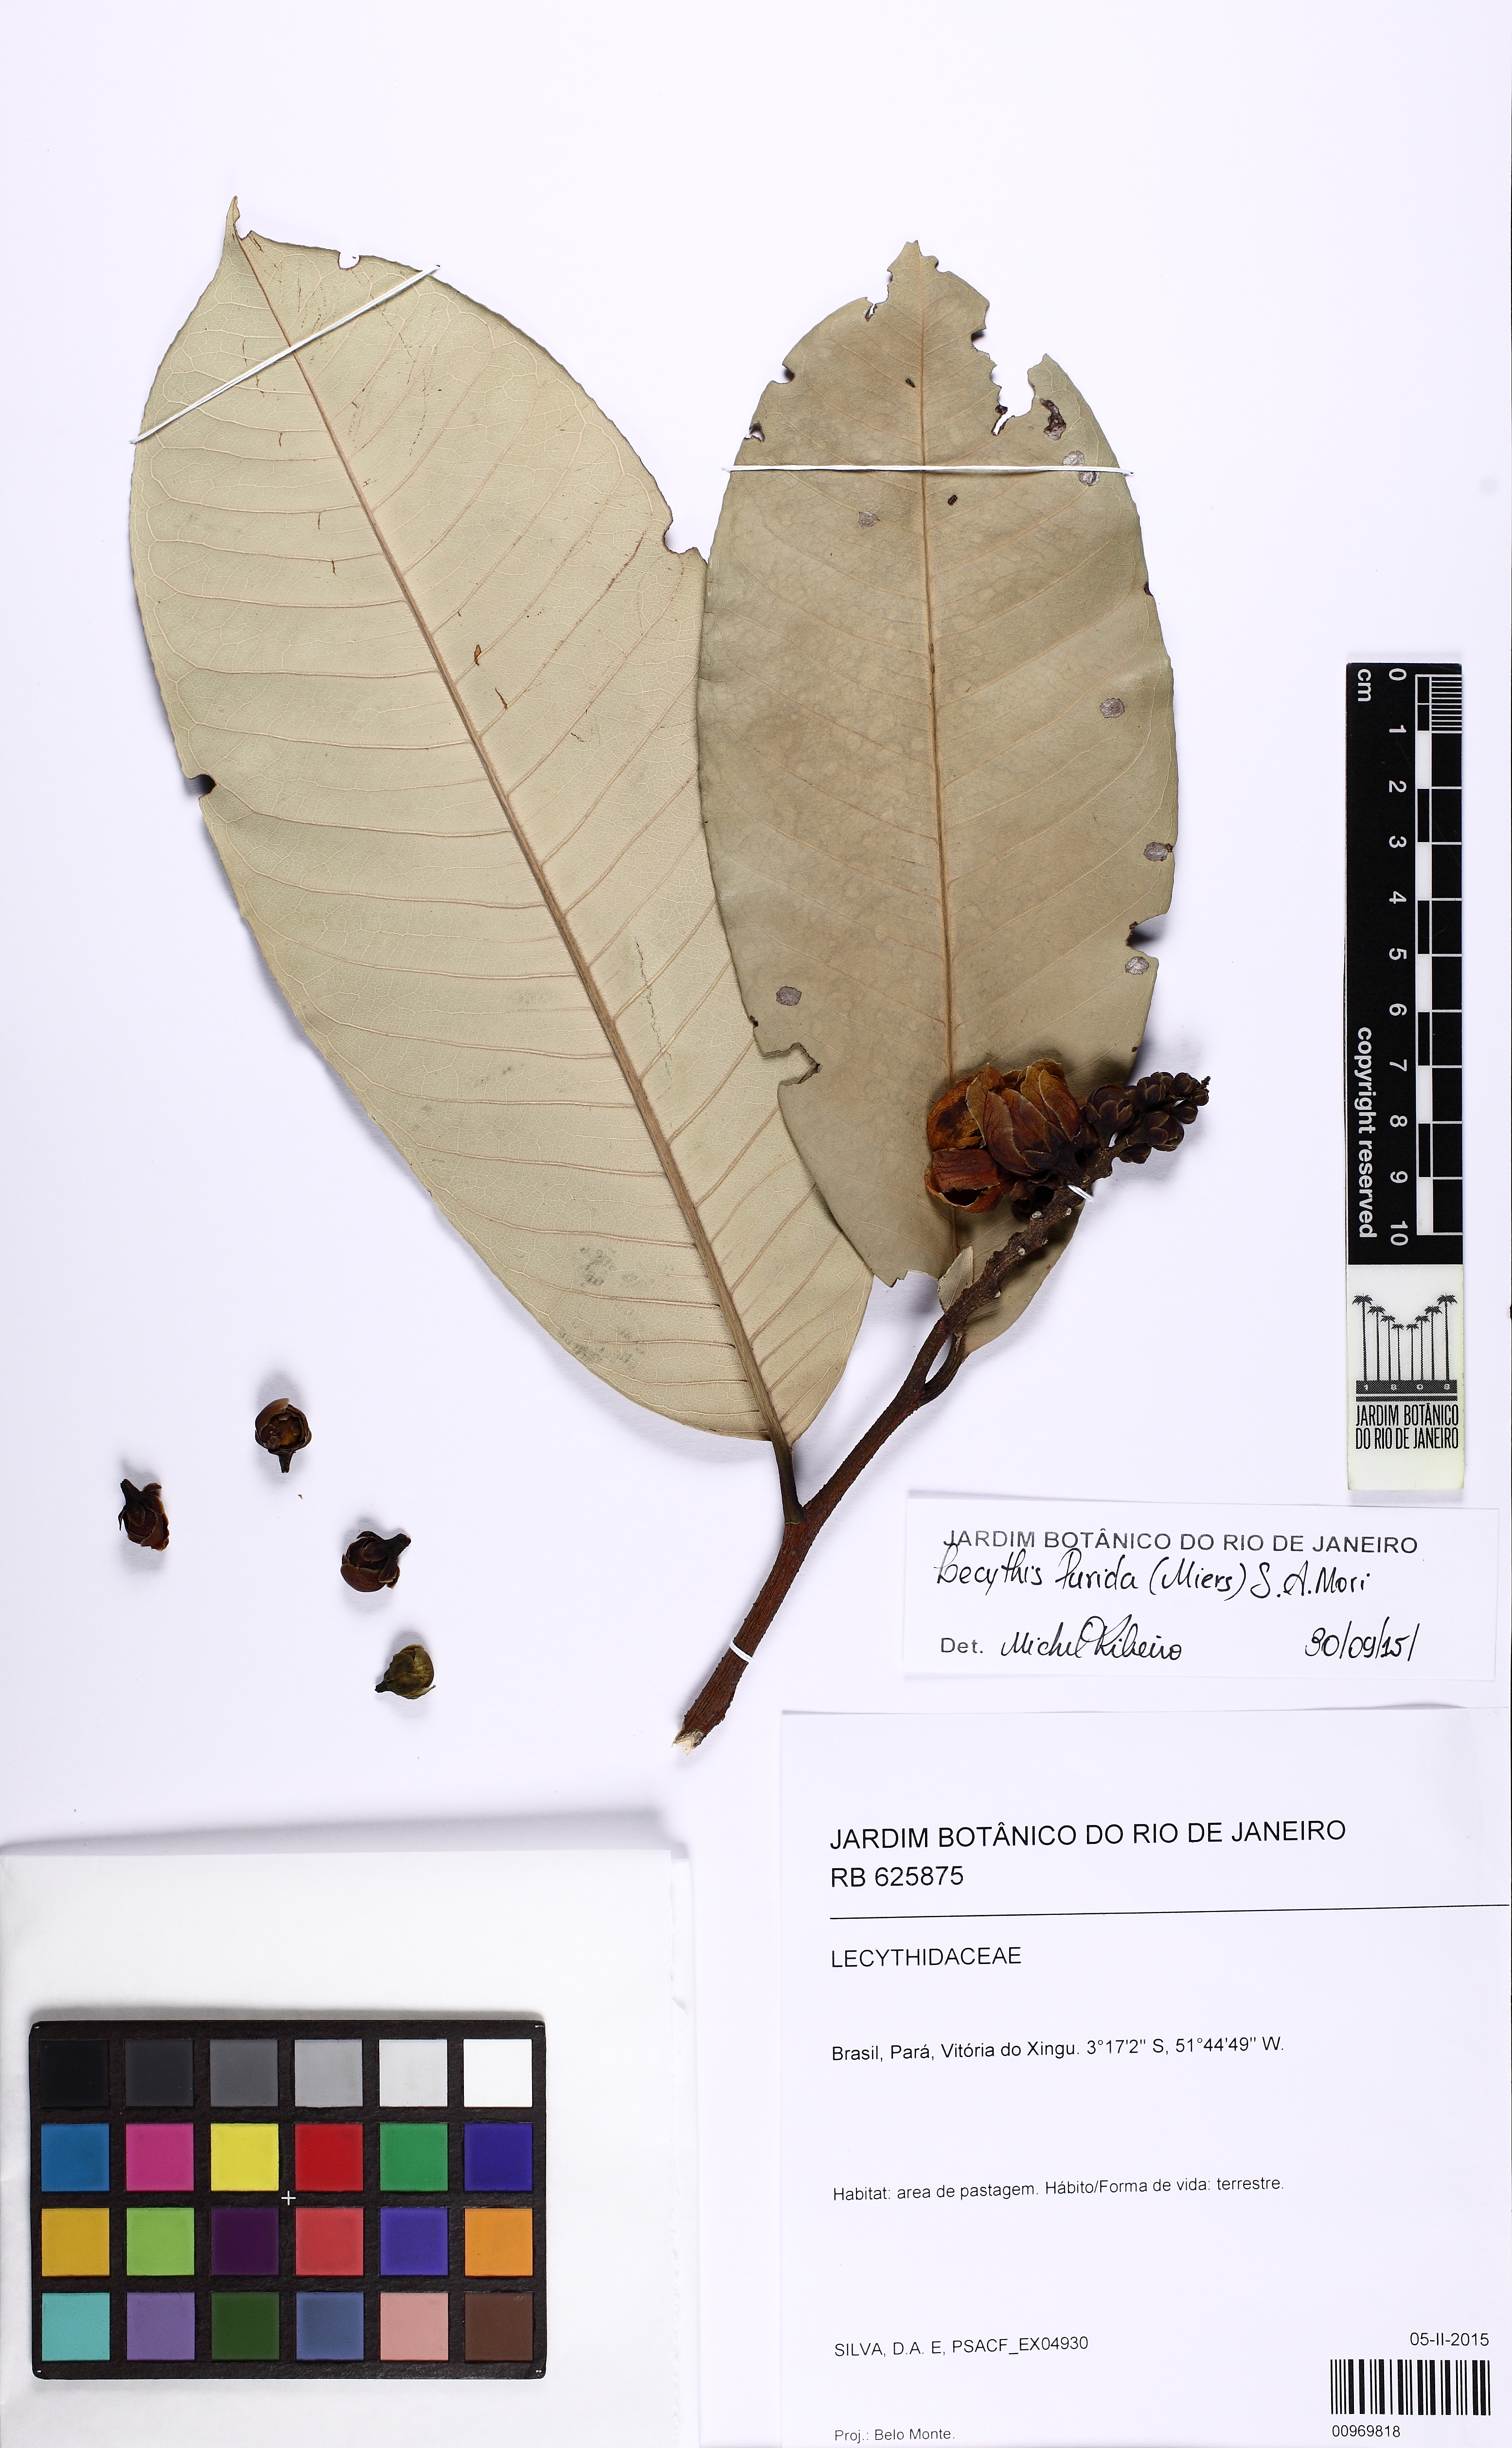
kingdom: Plantae
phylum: Tracheophyta
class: Magnoliopsida
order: Ericales
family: Lecythidaceae
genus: Lecythis
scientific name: Lecythis lurida
